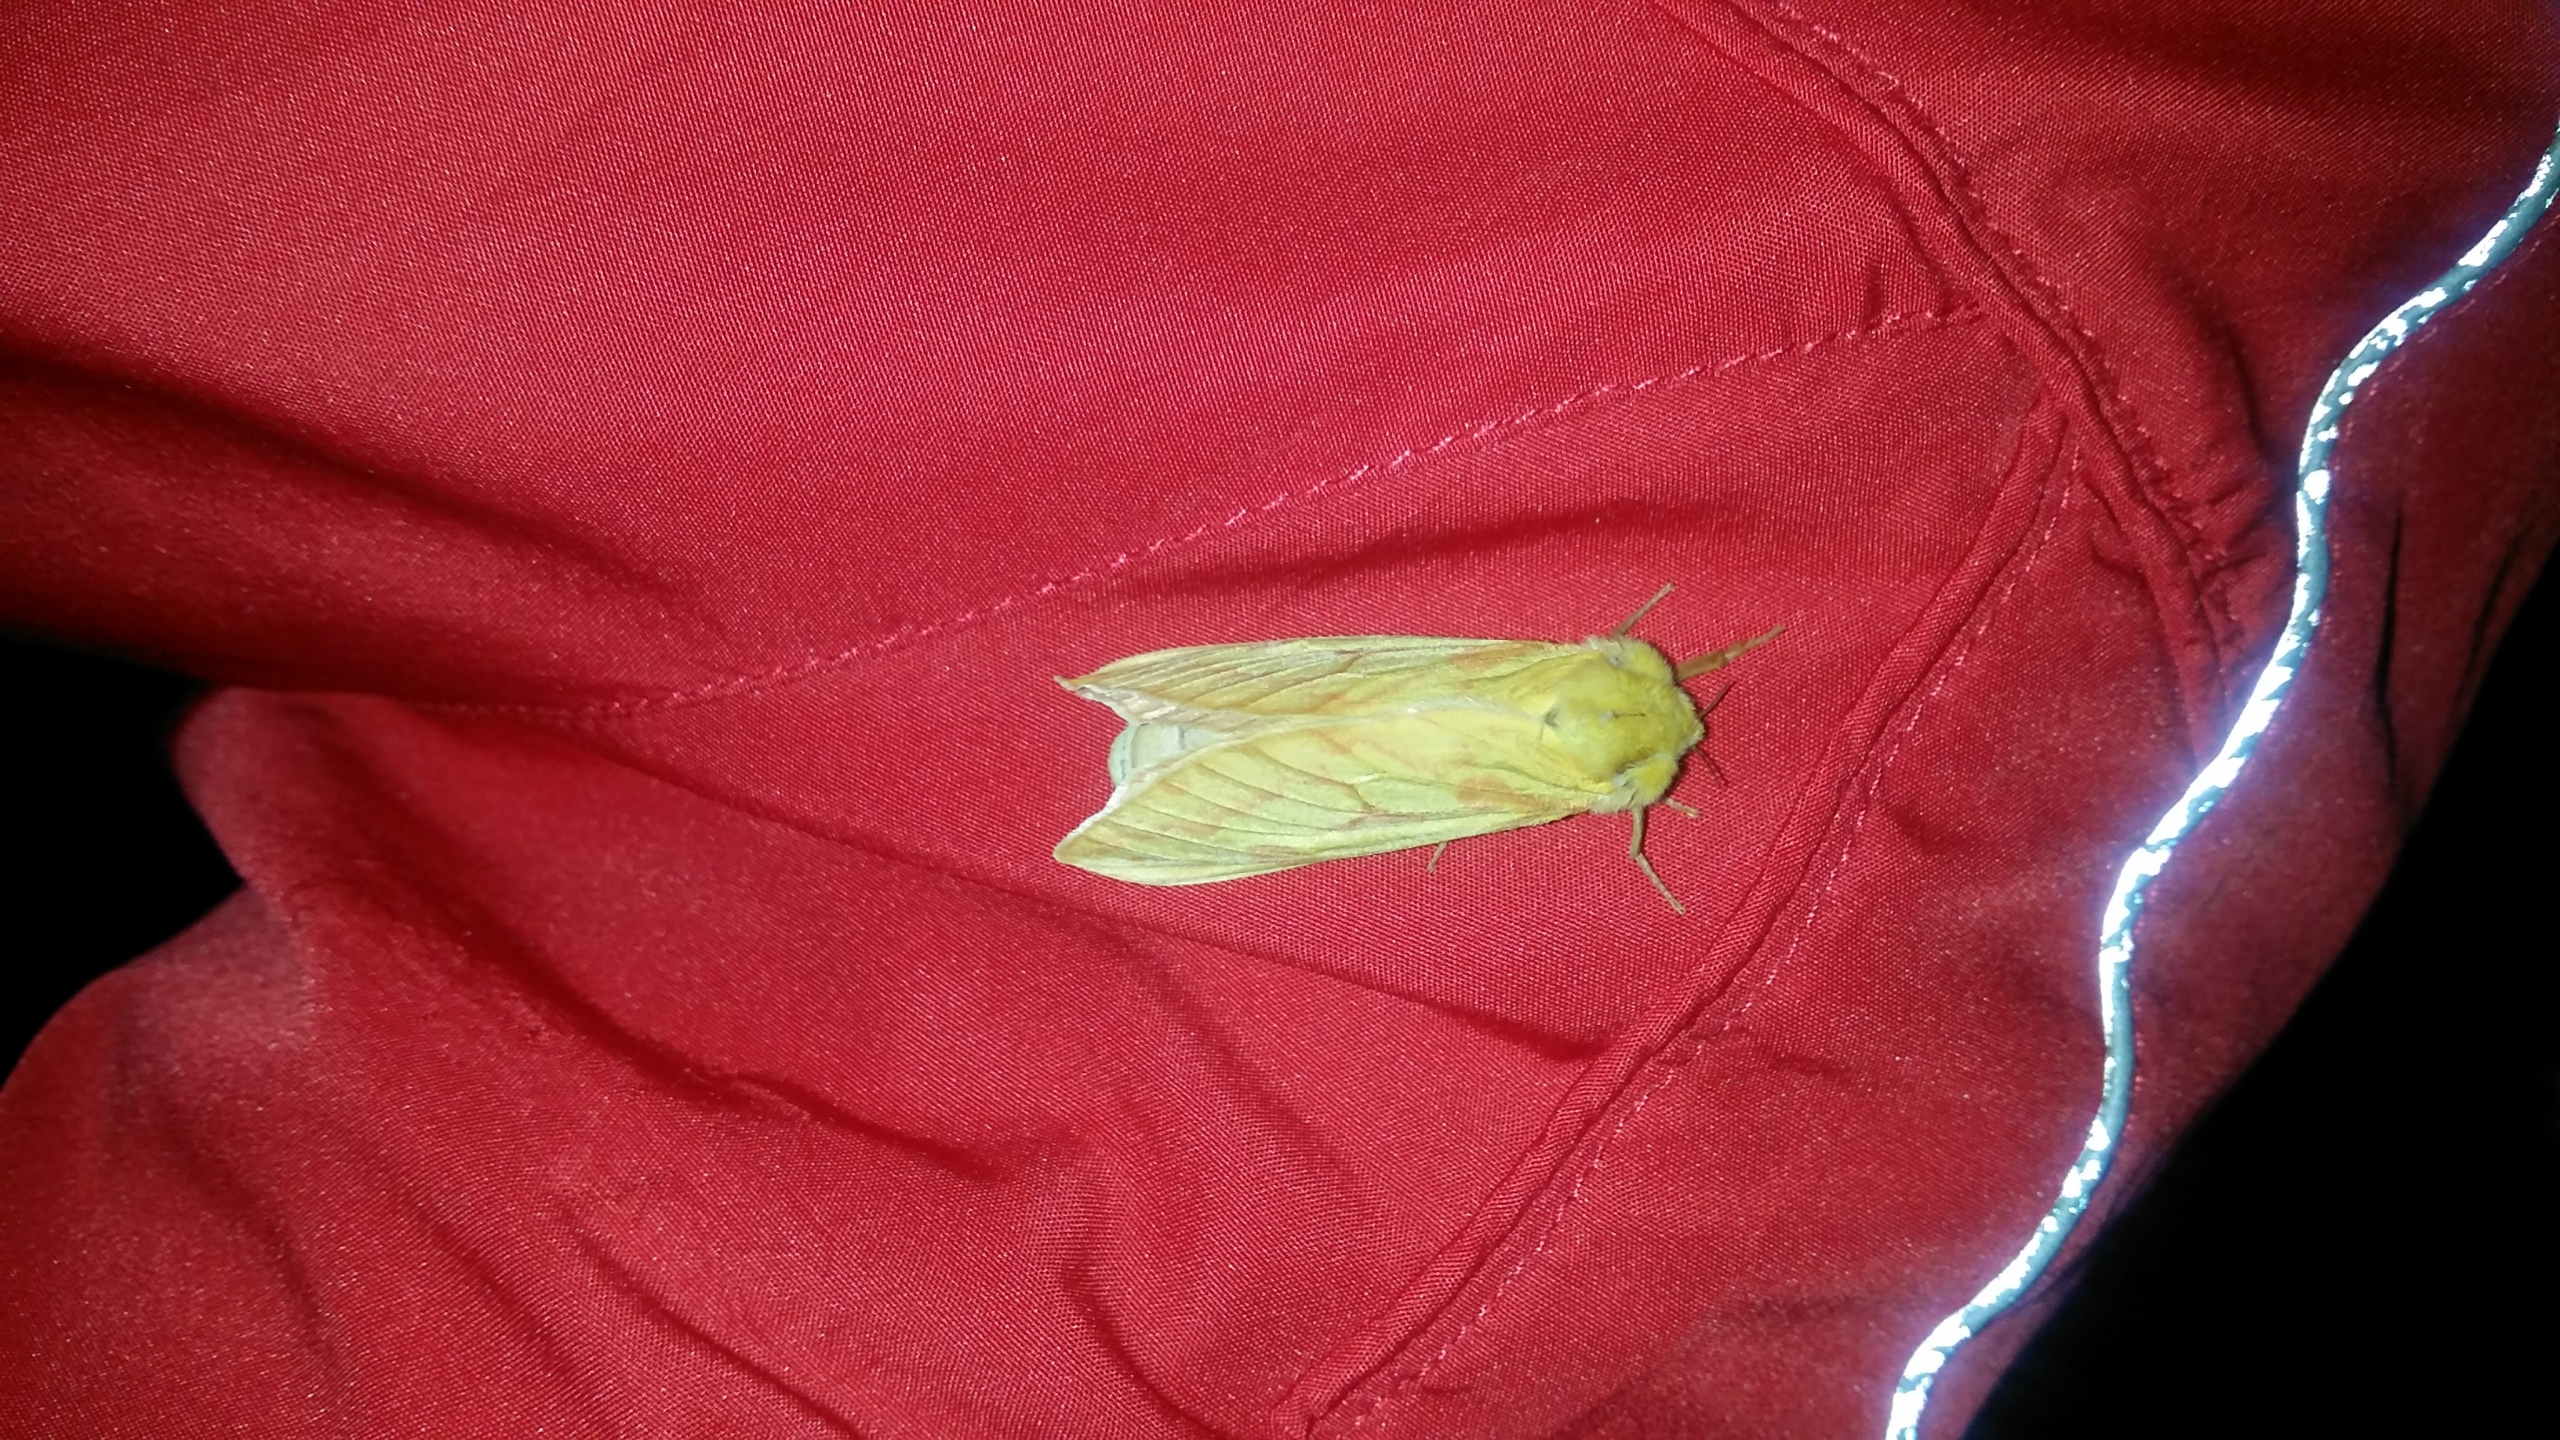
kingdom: Animalia
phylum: Arthropoda
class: Insecta
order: Lepidoptera
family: Hepialidae
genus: Hepialus
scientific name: Hepialus humuli
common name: Humlerodæder
